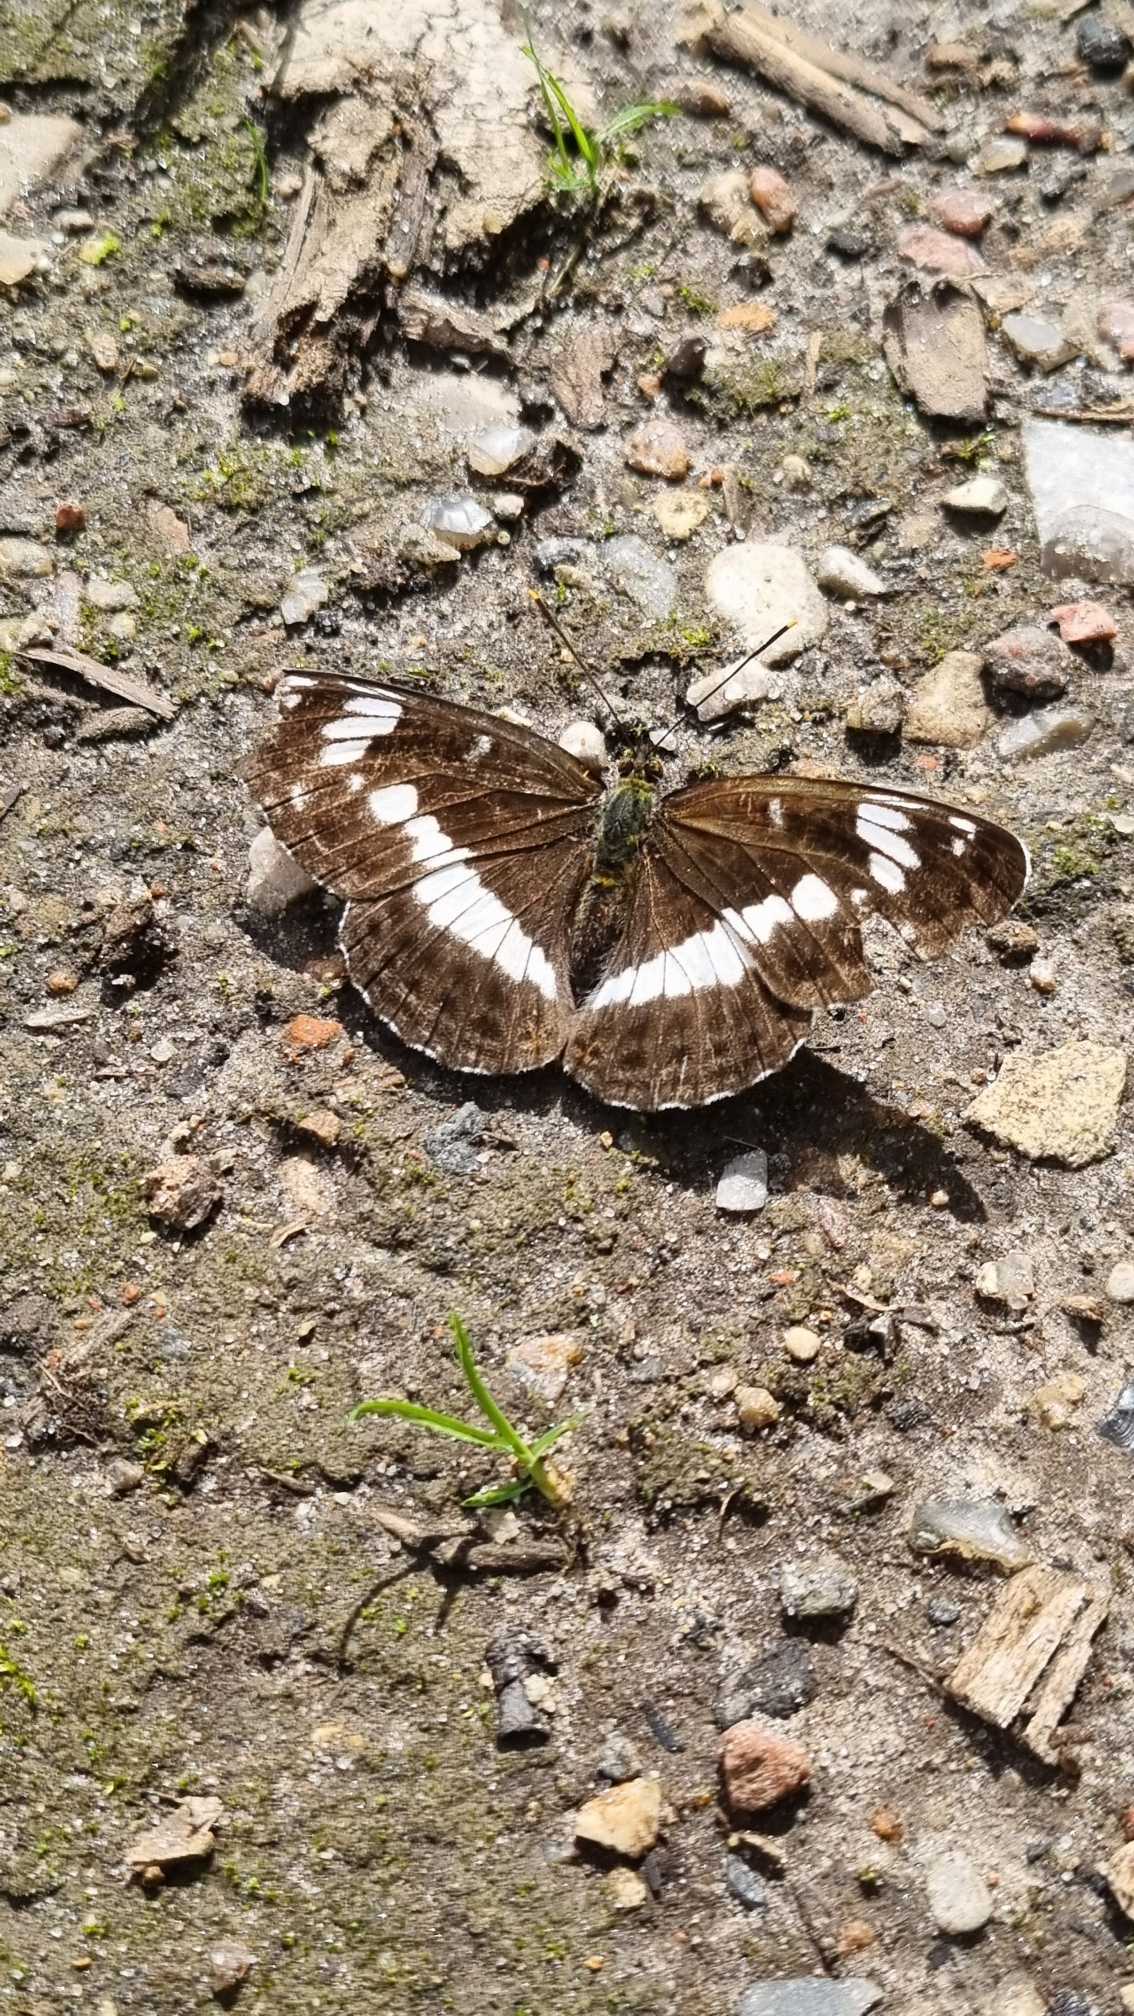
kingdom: Animalia
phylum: Arthropoda
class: Insecta
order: Lepidoptera
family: Nymphalidae
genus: Ladoga
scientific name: Ladoga camilla
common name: Hvid admiral
